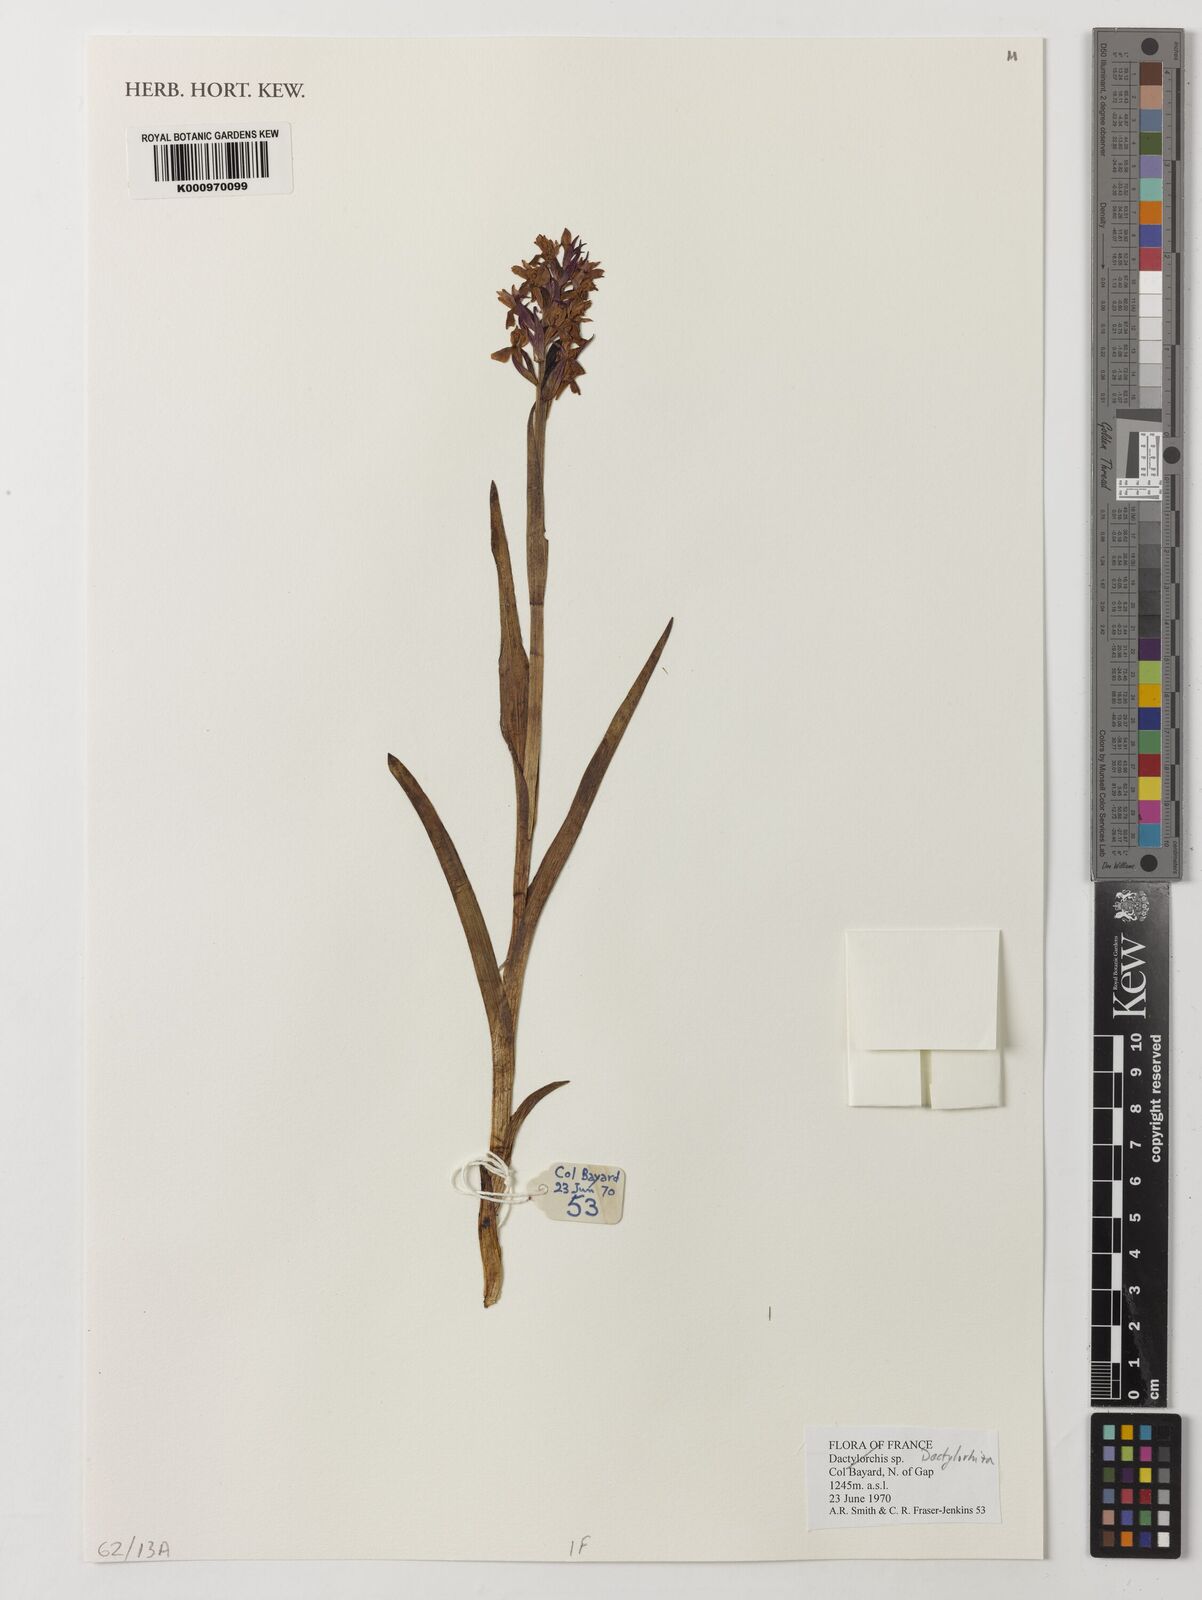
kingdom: Plantae
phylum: Tracheophyta
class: Liliopsida
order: Asparagales
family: Orchidaceae
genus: Dactylorhiza
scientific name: Dactylorhiza
